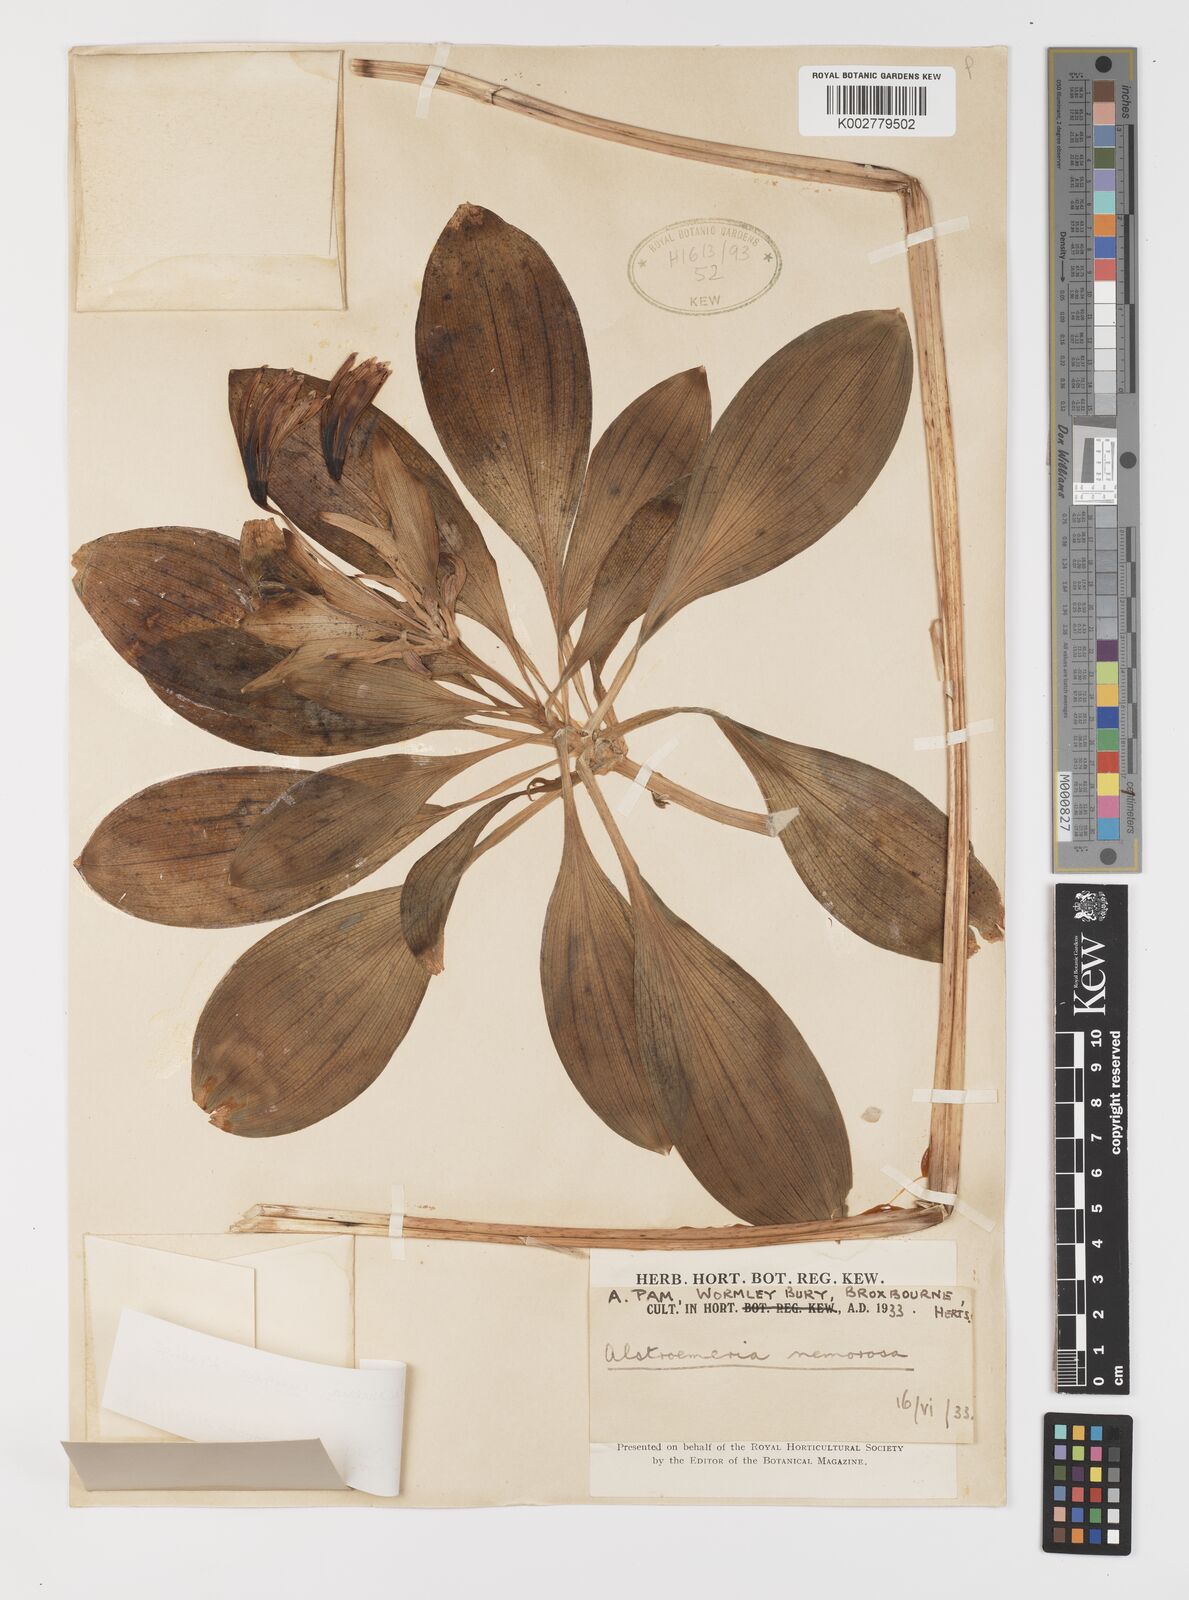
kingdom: Plantae
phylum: Tracheophyta
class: Liliopsida
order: Liliales
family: Alstroemeriaceae
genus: Alstroemeria
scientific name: Alstroemeria speciosa
